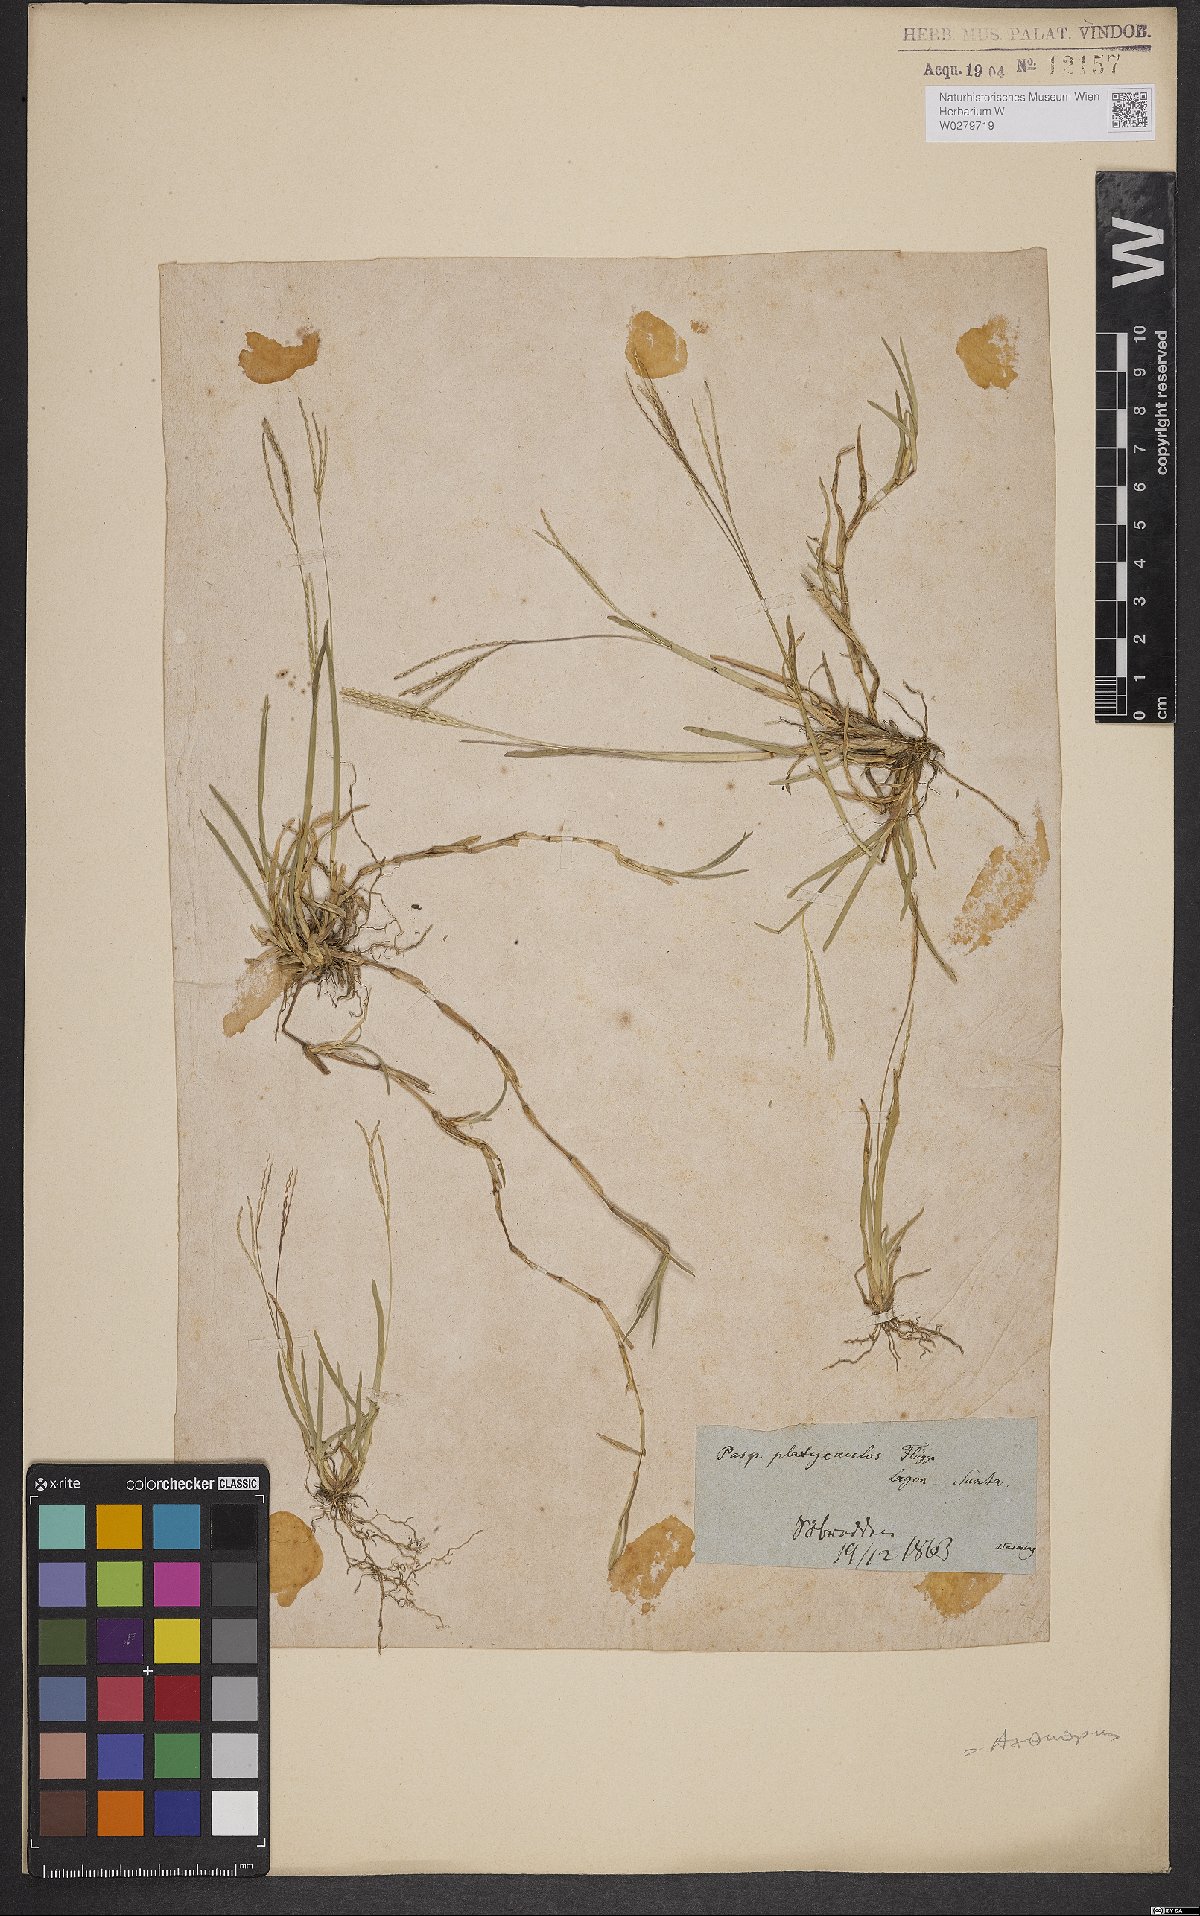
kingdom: Plantae
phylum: Tracheophyta
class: Liliopsida
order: Poales
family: Poaceae
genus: Axonopus
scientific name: Axonopus compressus
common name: American carpet grass
